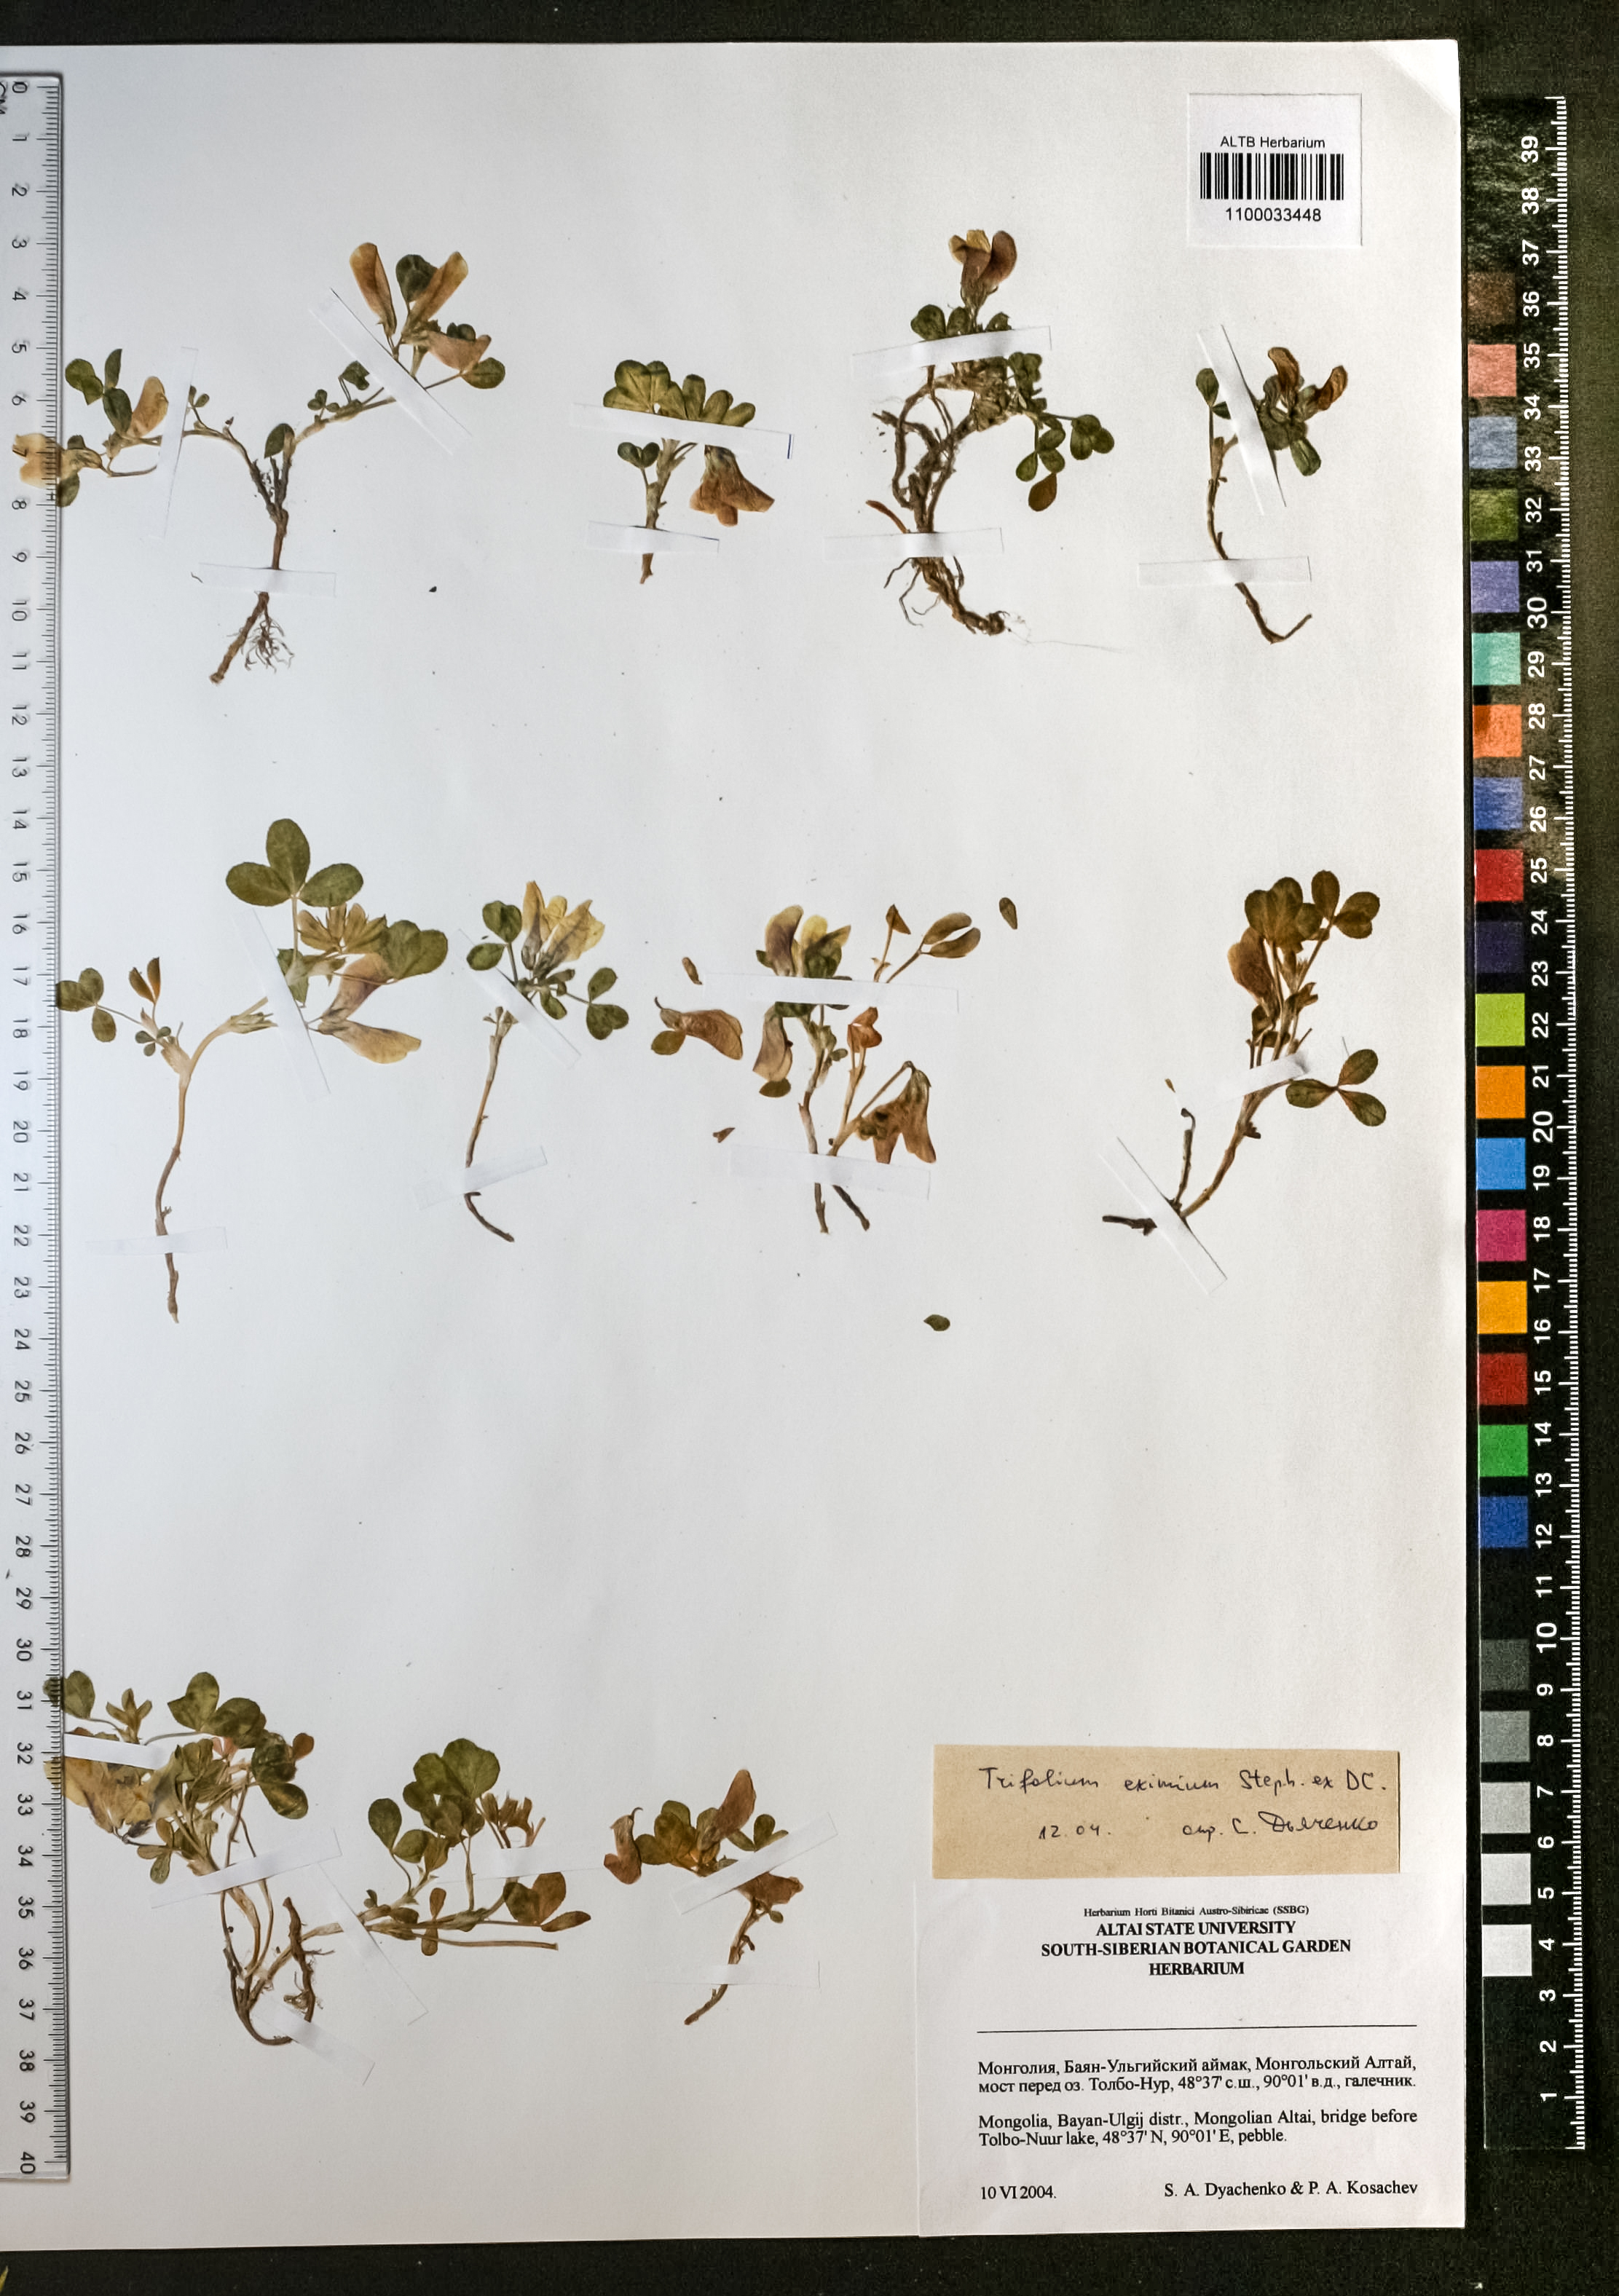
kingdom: Plantae
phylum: Tracheophyta
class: Magnoliopsida
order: Fabales
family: Fabaceae
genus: Trifolium
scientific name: Trifolium eximium
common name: Excellent clover
